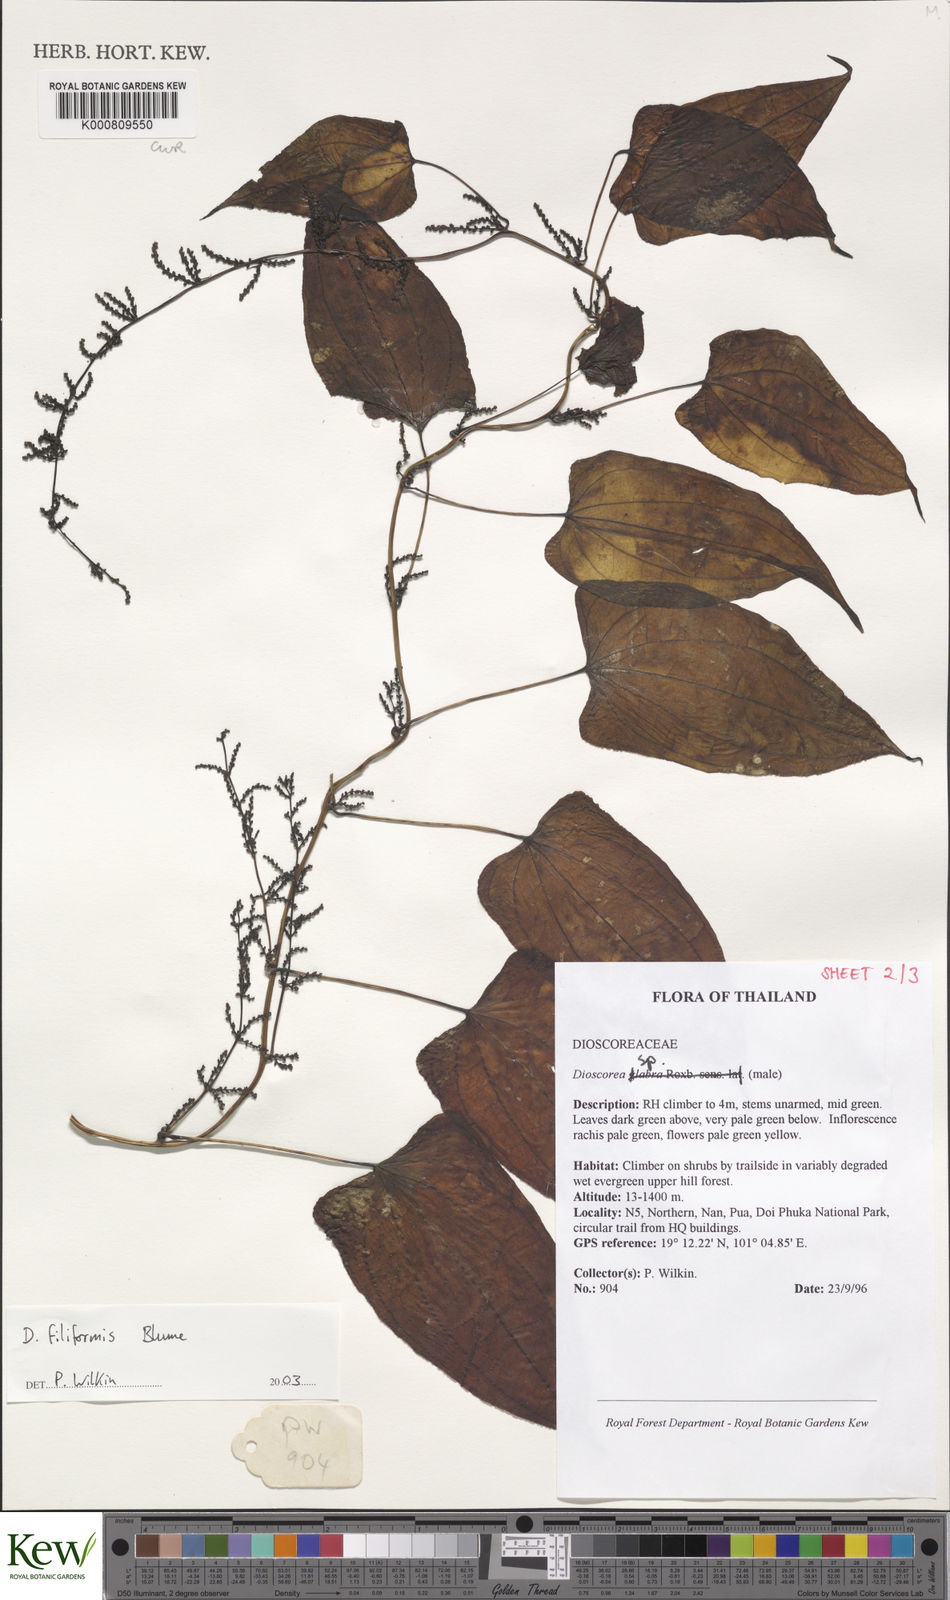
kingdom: Plantae
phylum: Tracheophyta
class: Liliopsida
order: Dioscoreales
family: Dioscoreaceae
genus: Dioscorea
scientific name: Dioscorea filiformis
